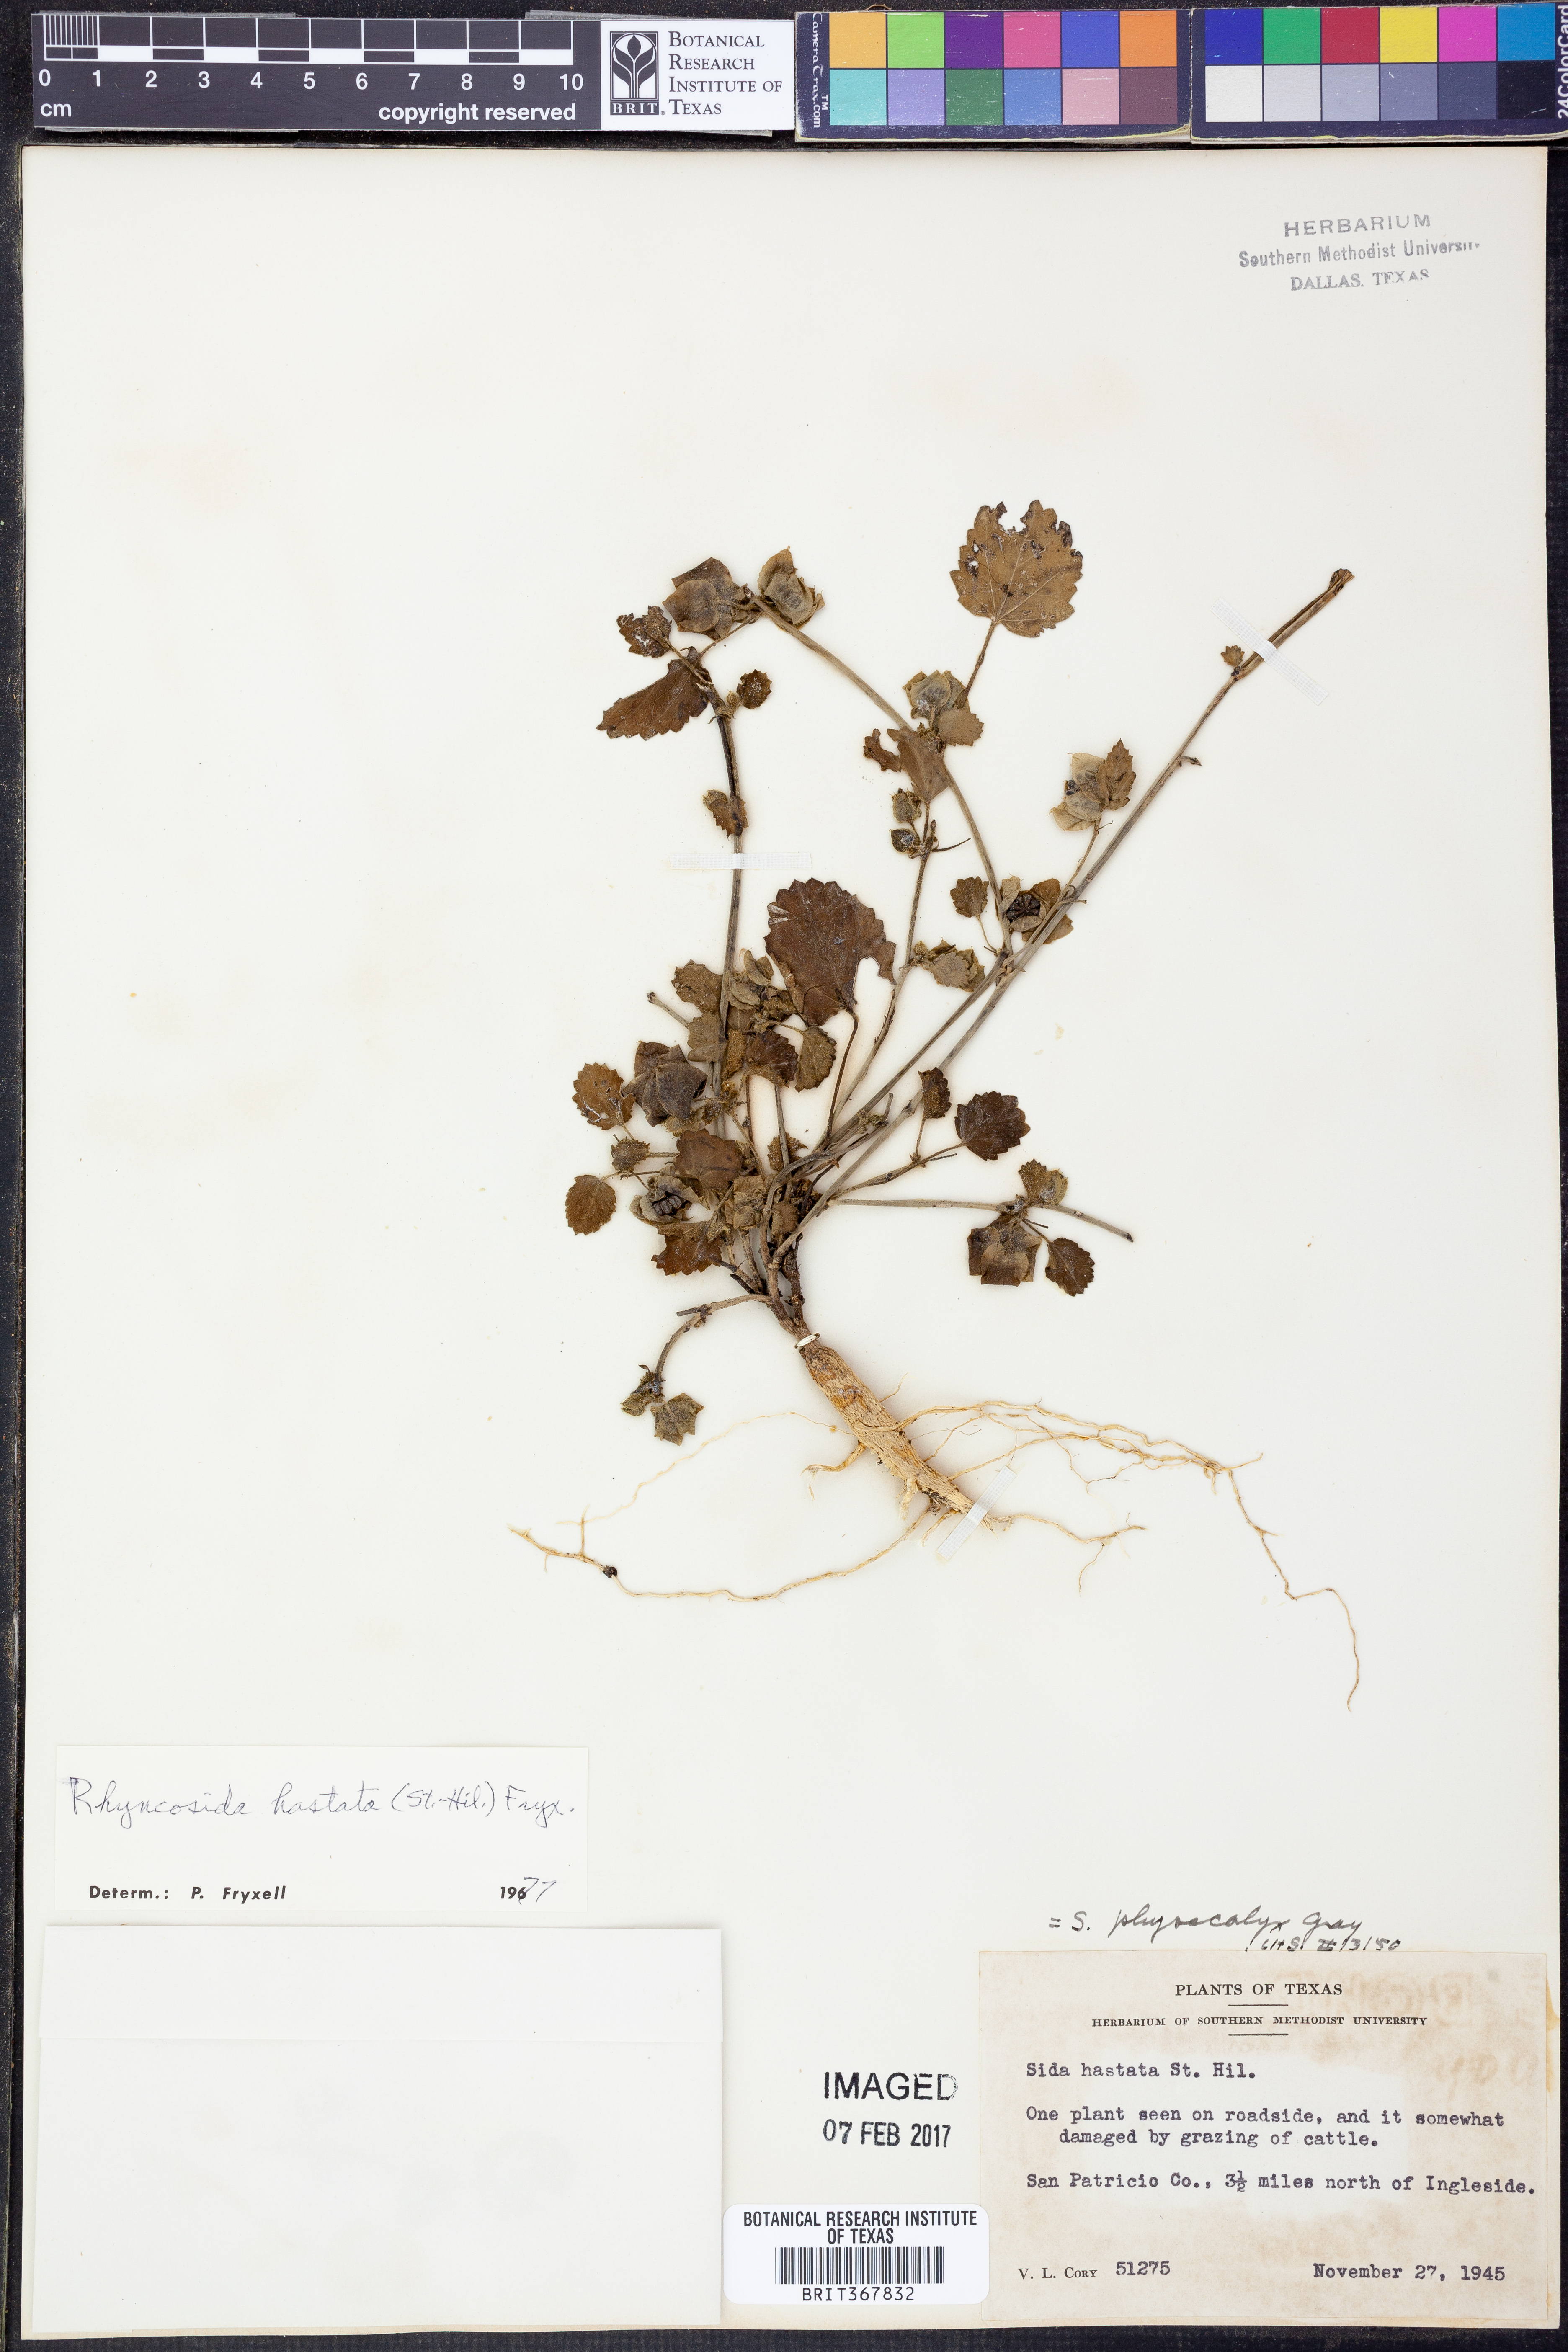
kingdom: Plantae
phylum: Tracheophyta
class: Magnoliopsida
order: Malvales
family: Malvaceae
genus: Rhynchosida
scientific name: Rhynchosida
